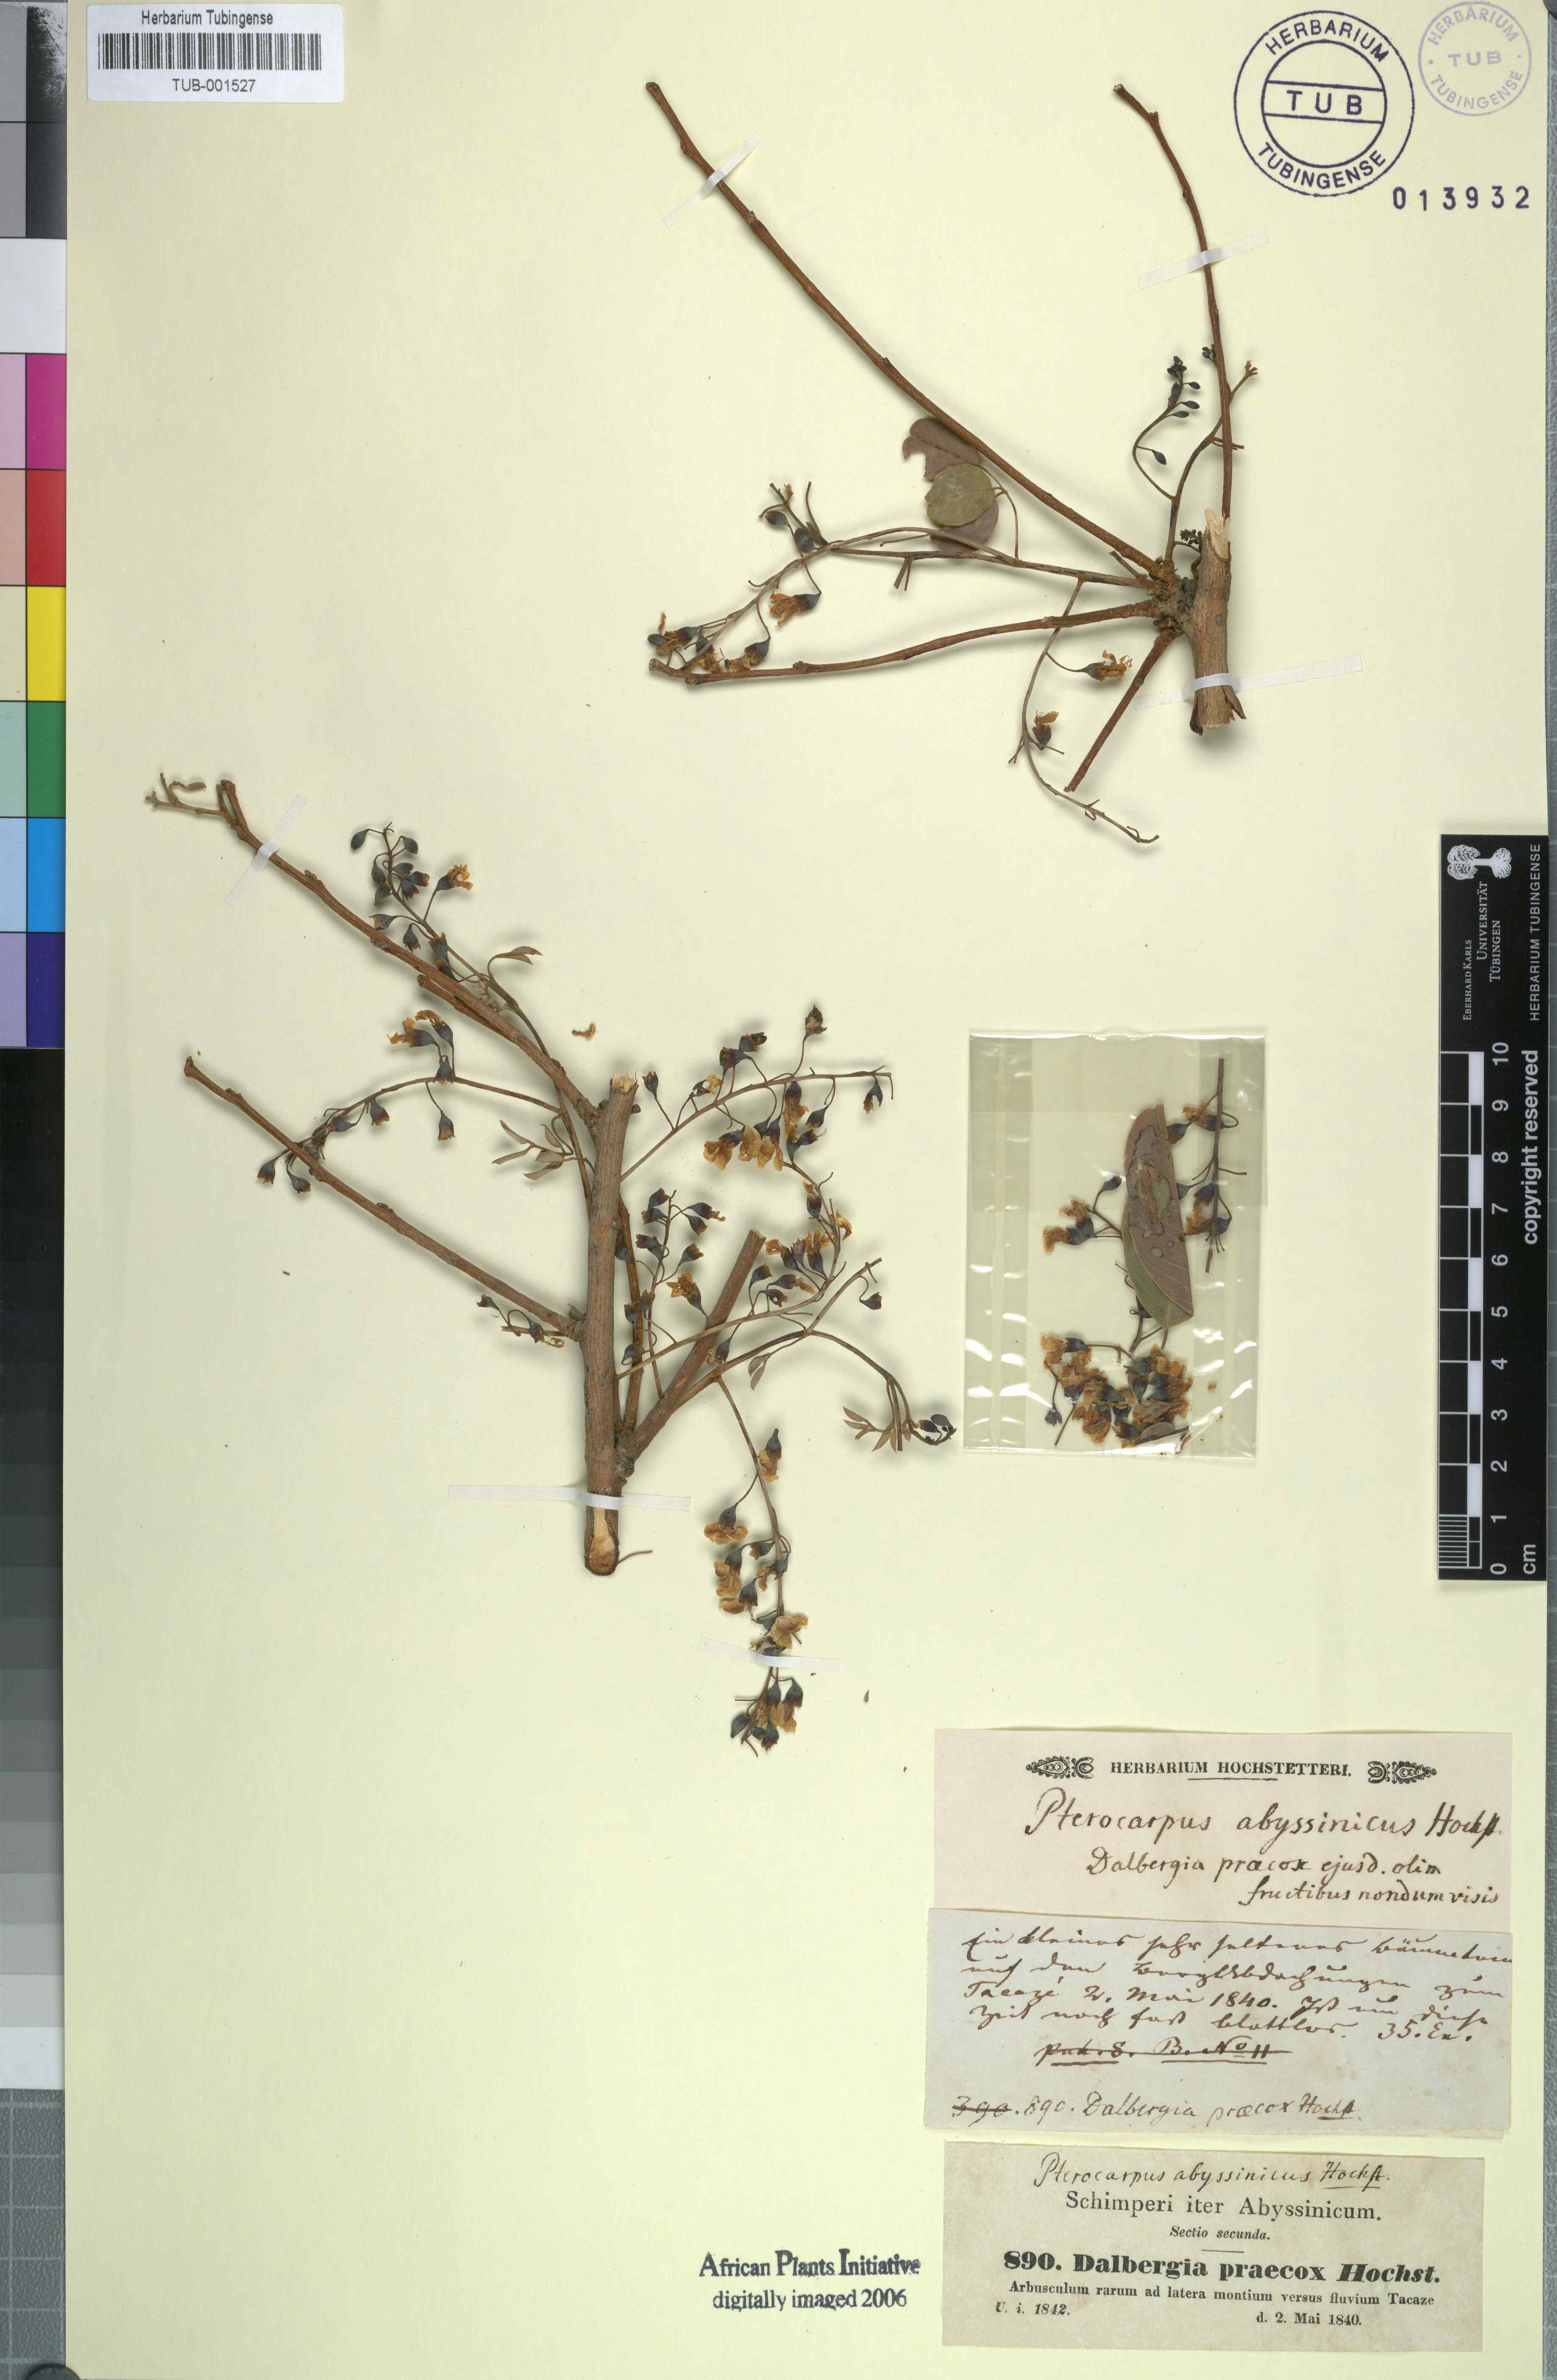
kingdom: Plantae
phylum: Tracheophyta
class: Magnoliopsida
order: Fabales
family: Fabaceae
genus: Pterocarpus
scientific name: Pterocarpus lucens
